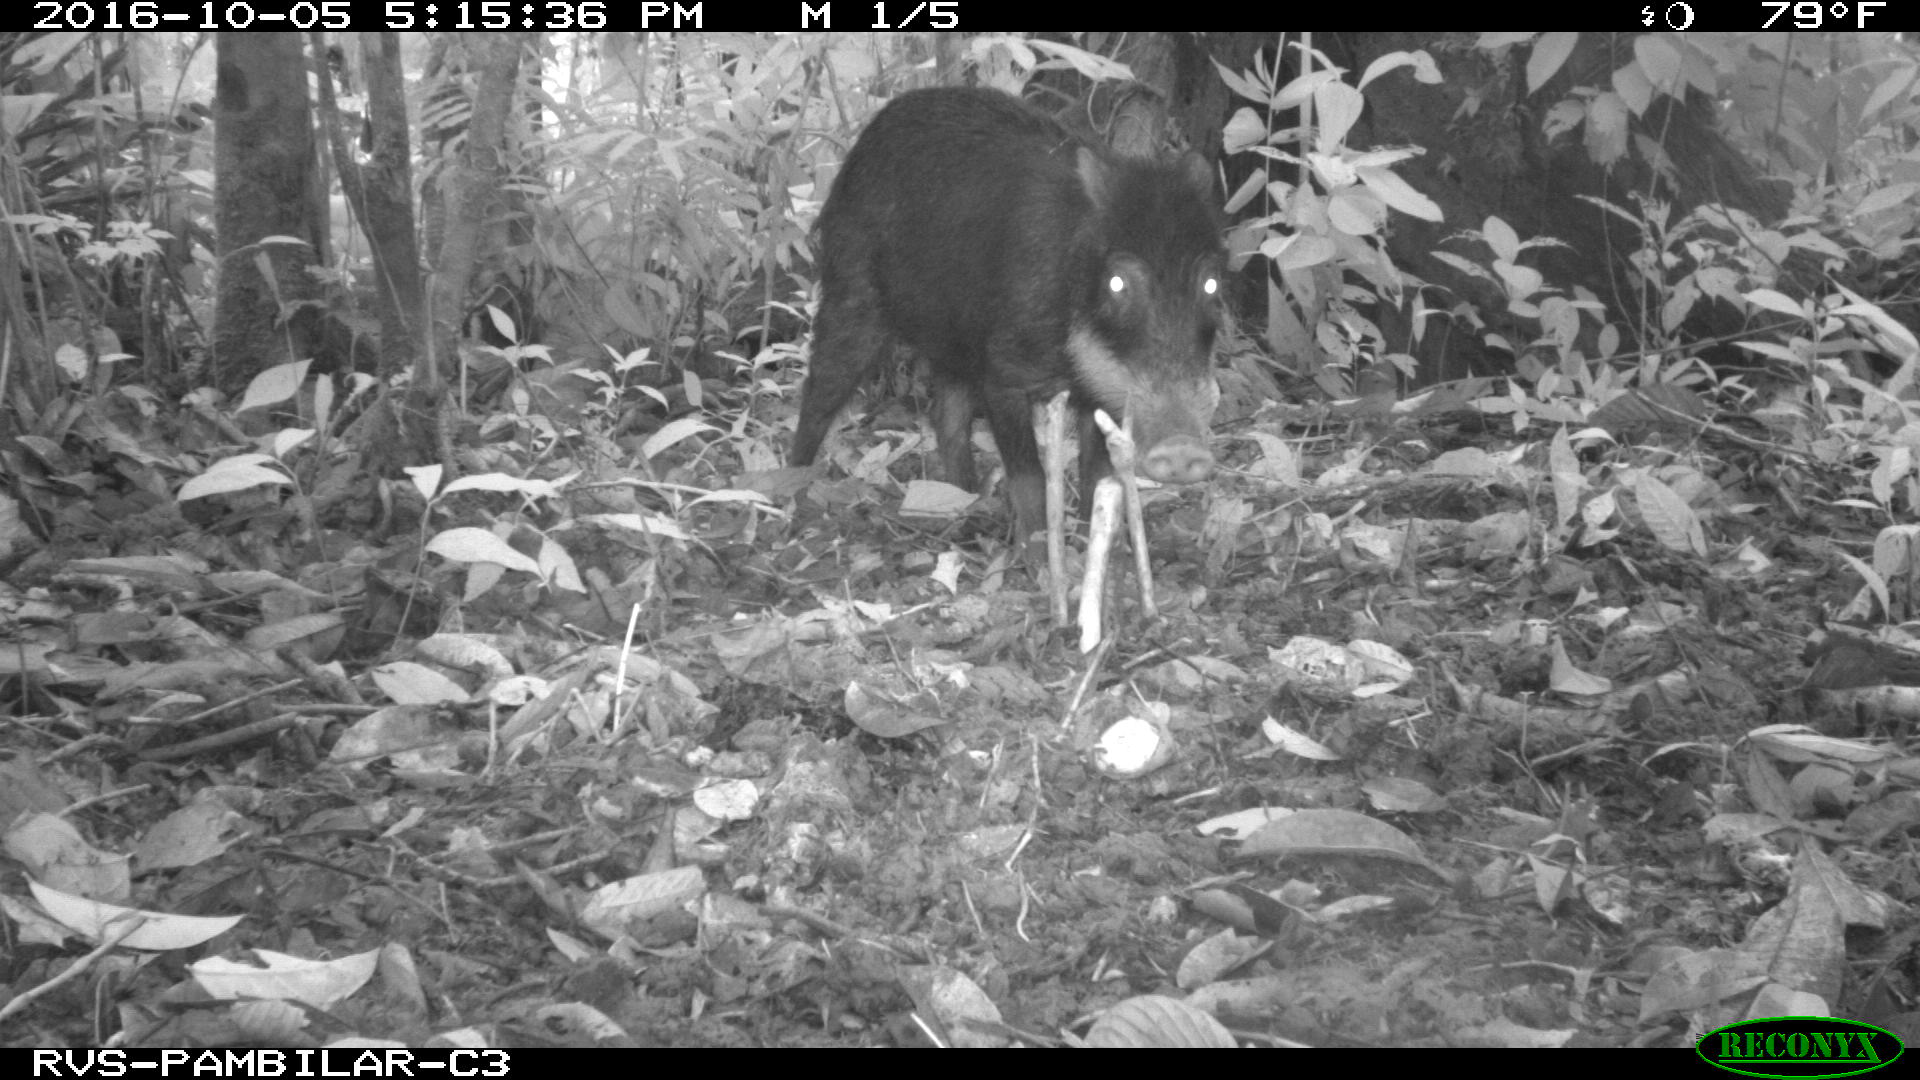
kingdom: Animalia
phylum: Chordata
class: Mammalia
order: Artiodactyla
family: Tayassuidae
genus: Tayassu
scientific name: Tayassu pecari
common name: White-lipped peccary
